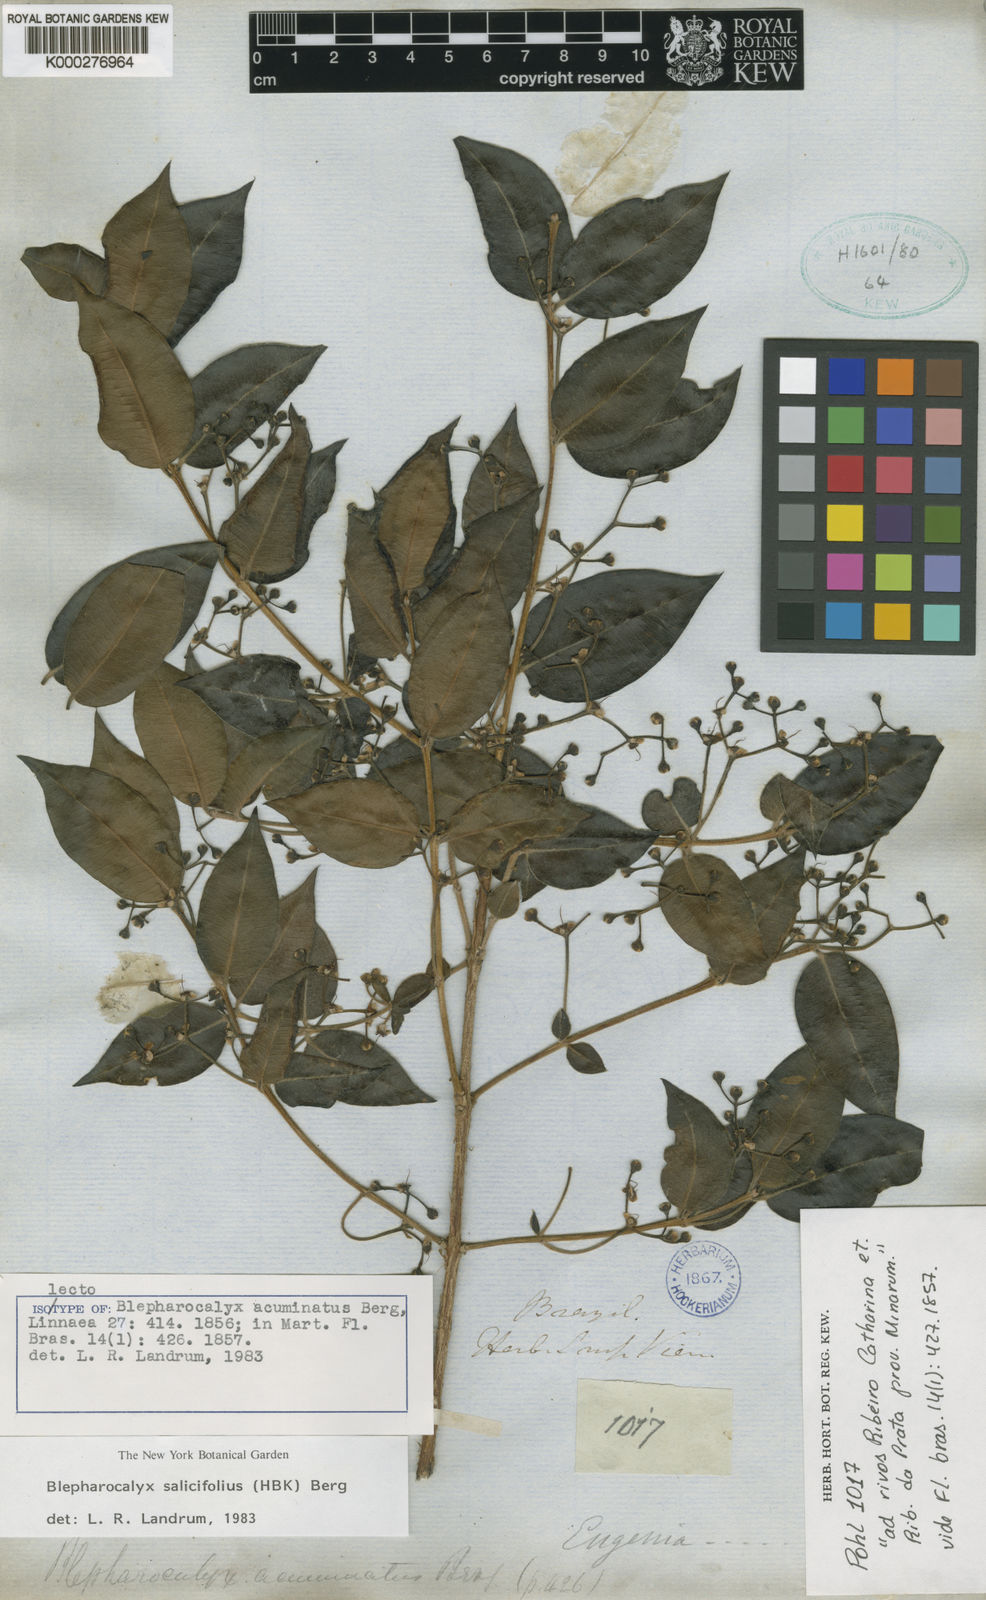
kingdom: Plantae
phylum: Tracheophyta
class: Magnoliopsida
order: Myrtales
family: Myrtaceae
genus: Blepharocalyx
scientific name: Blepharocalyx salicifolius
